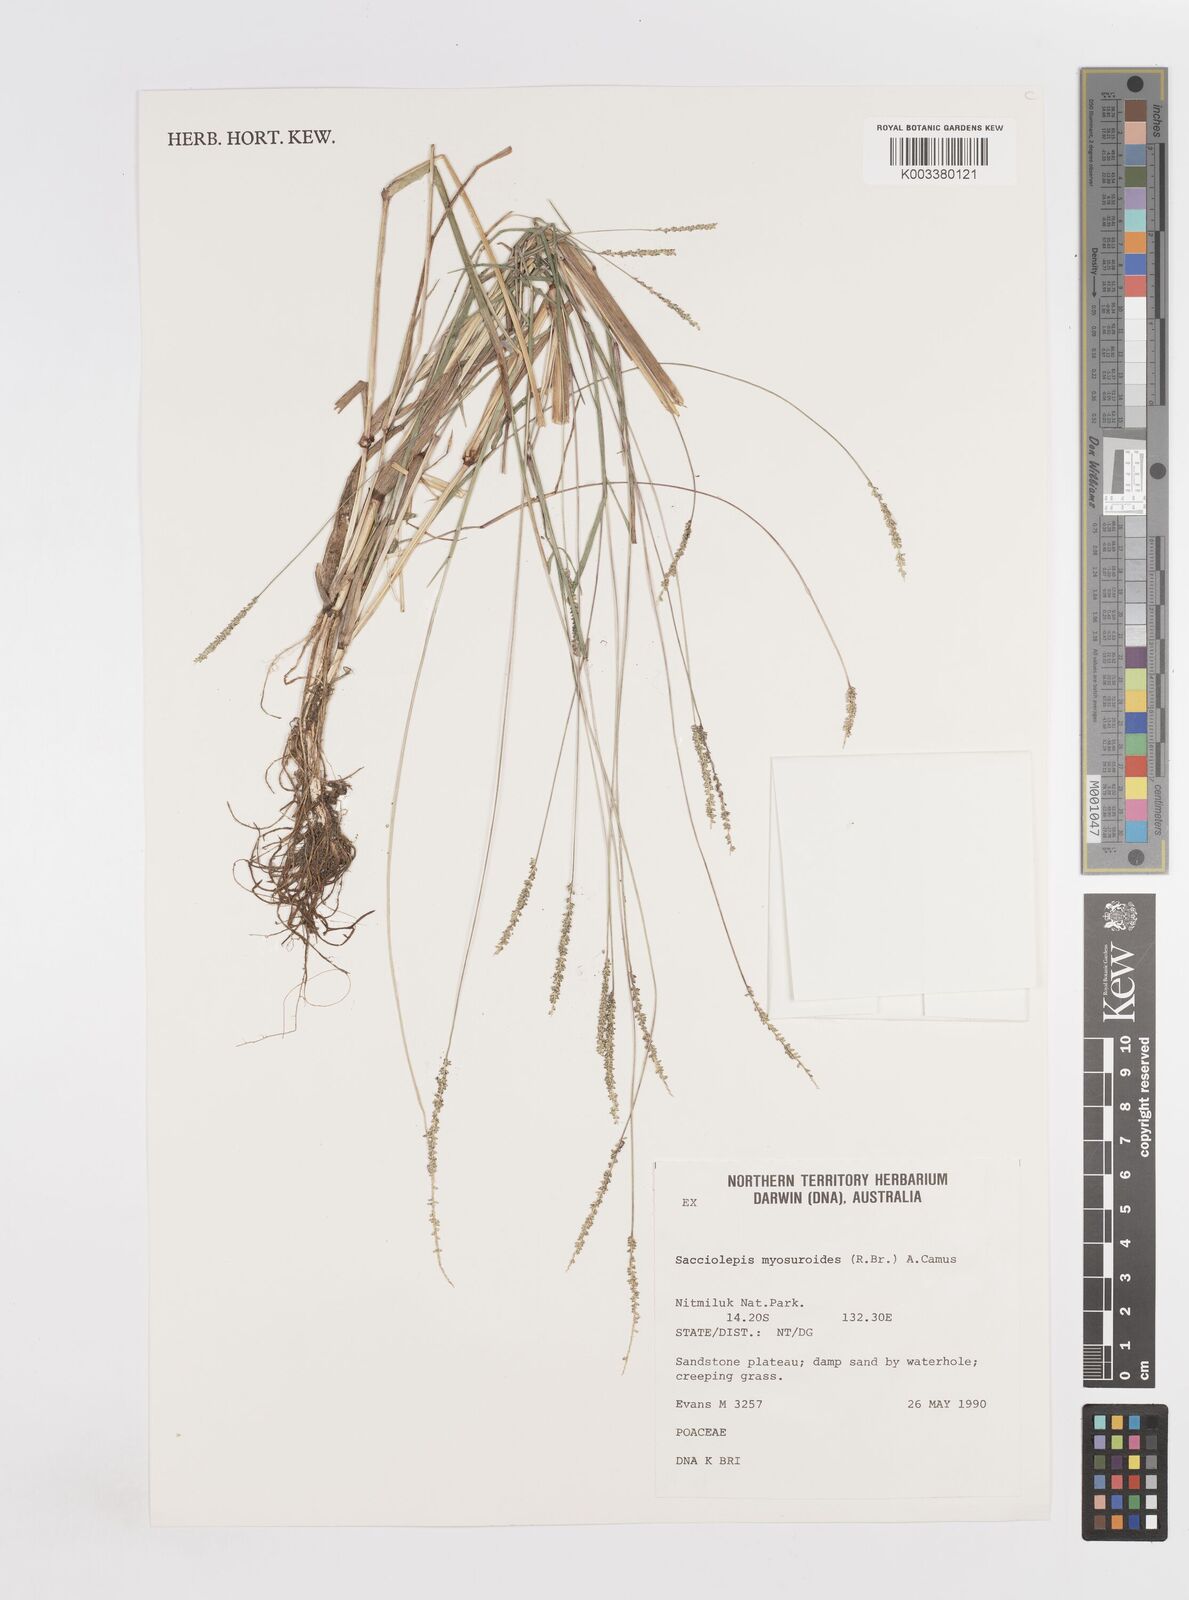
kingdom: Plantae
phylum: Tracheophyta
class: Liliopsida
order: Poales
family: Poaceae
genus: Sacciolepis
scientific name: Sacciolepis myosuroides
